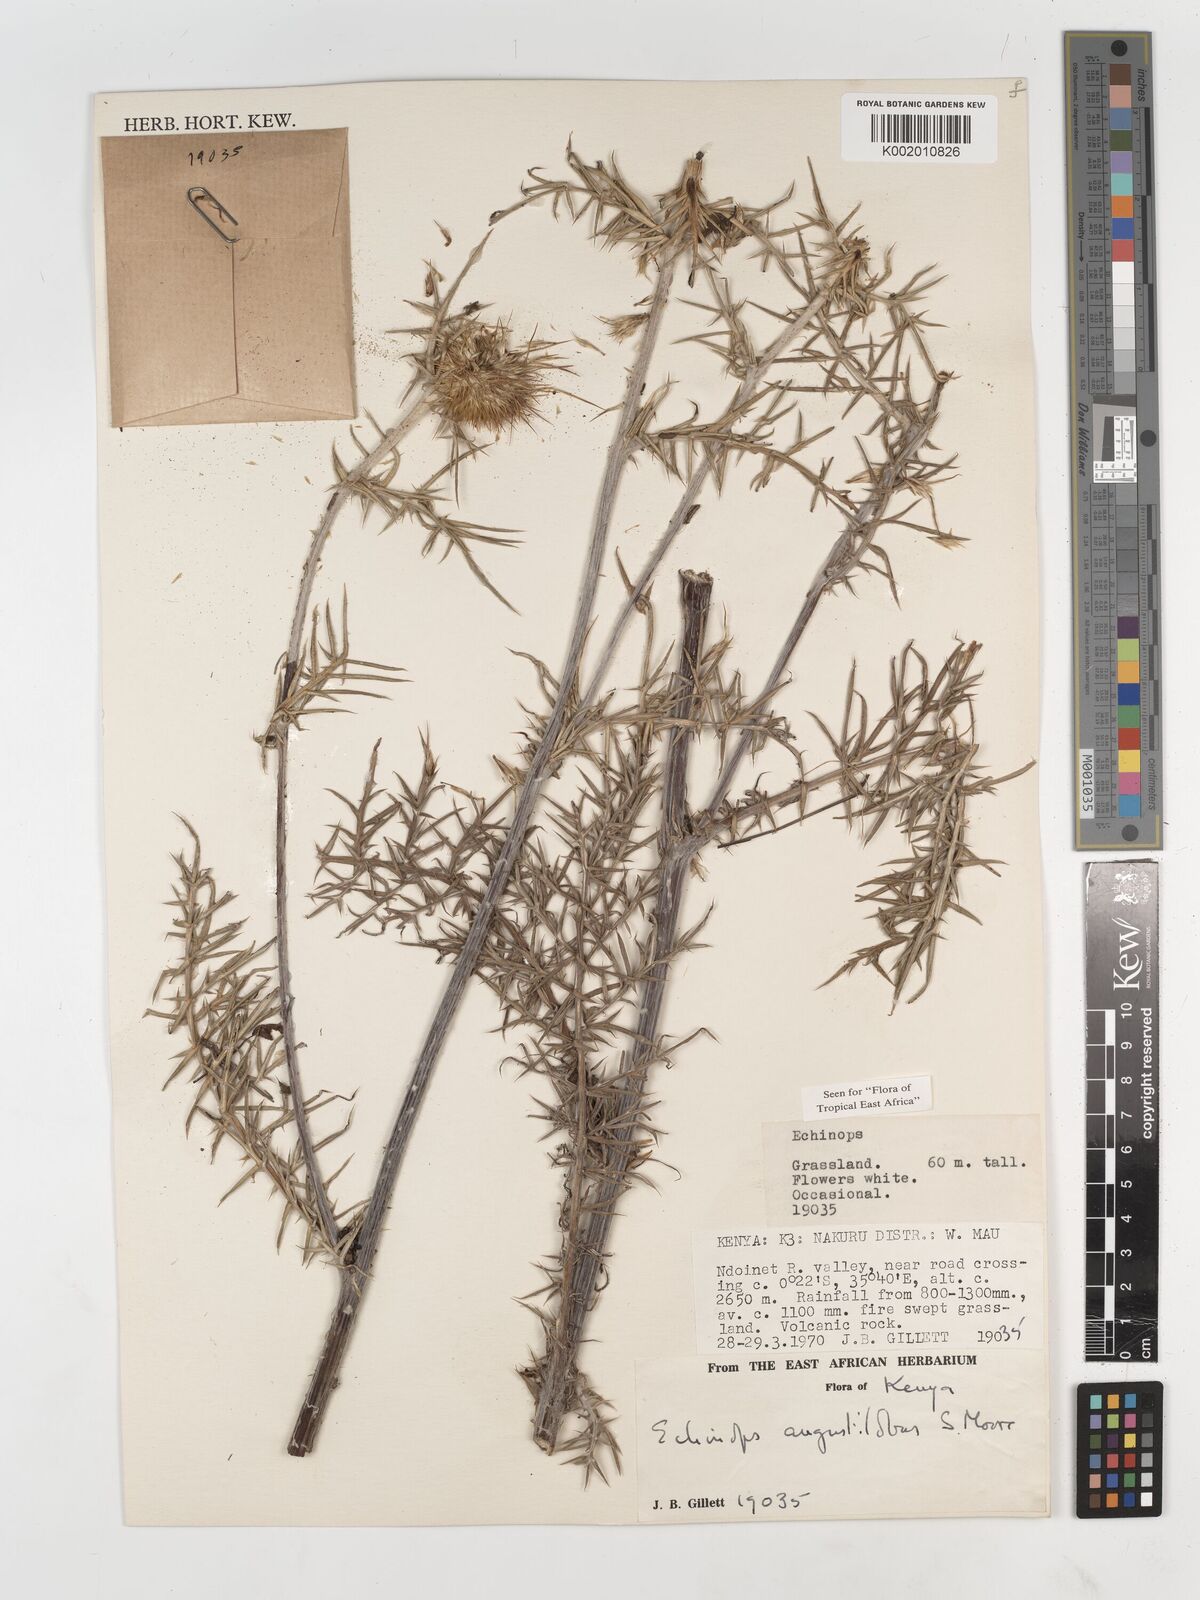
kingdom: Plantae
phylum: Tracheophyta
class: Magnoliopsida
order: Asterales
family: Asteraceae
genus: Echinops
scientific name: Echinops angustilobus
